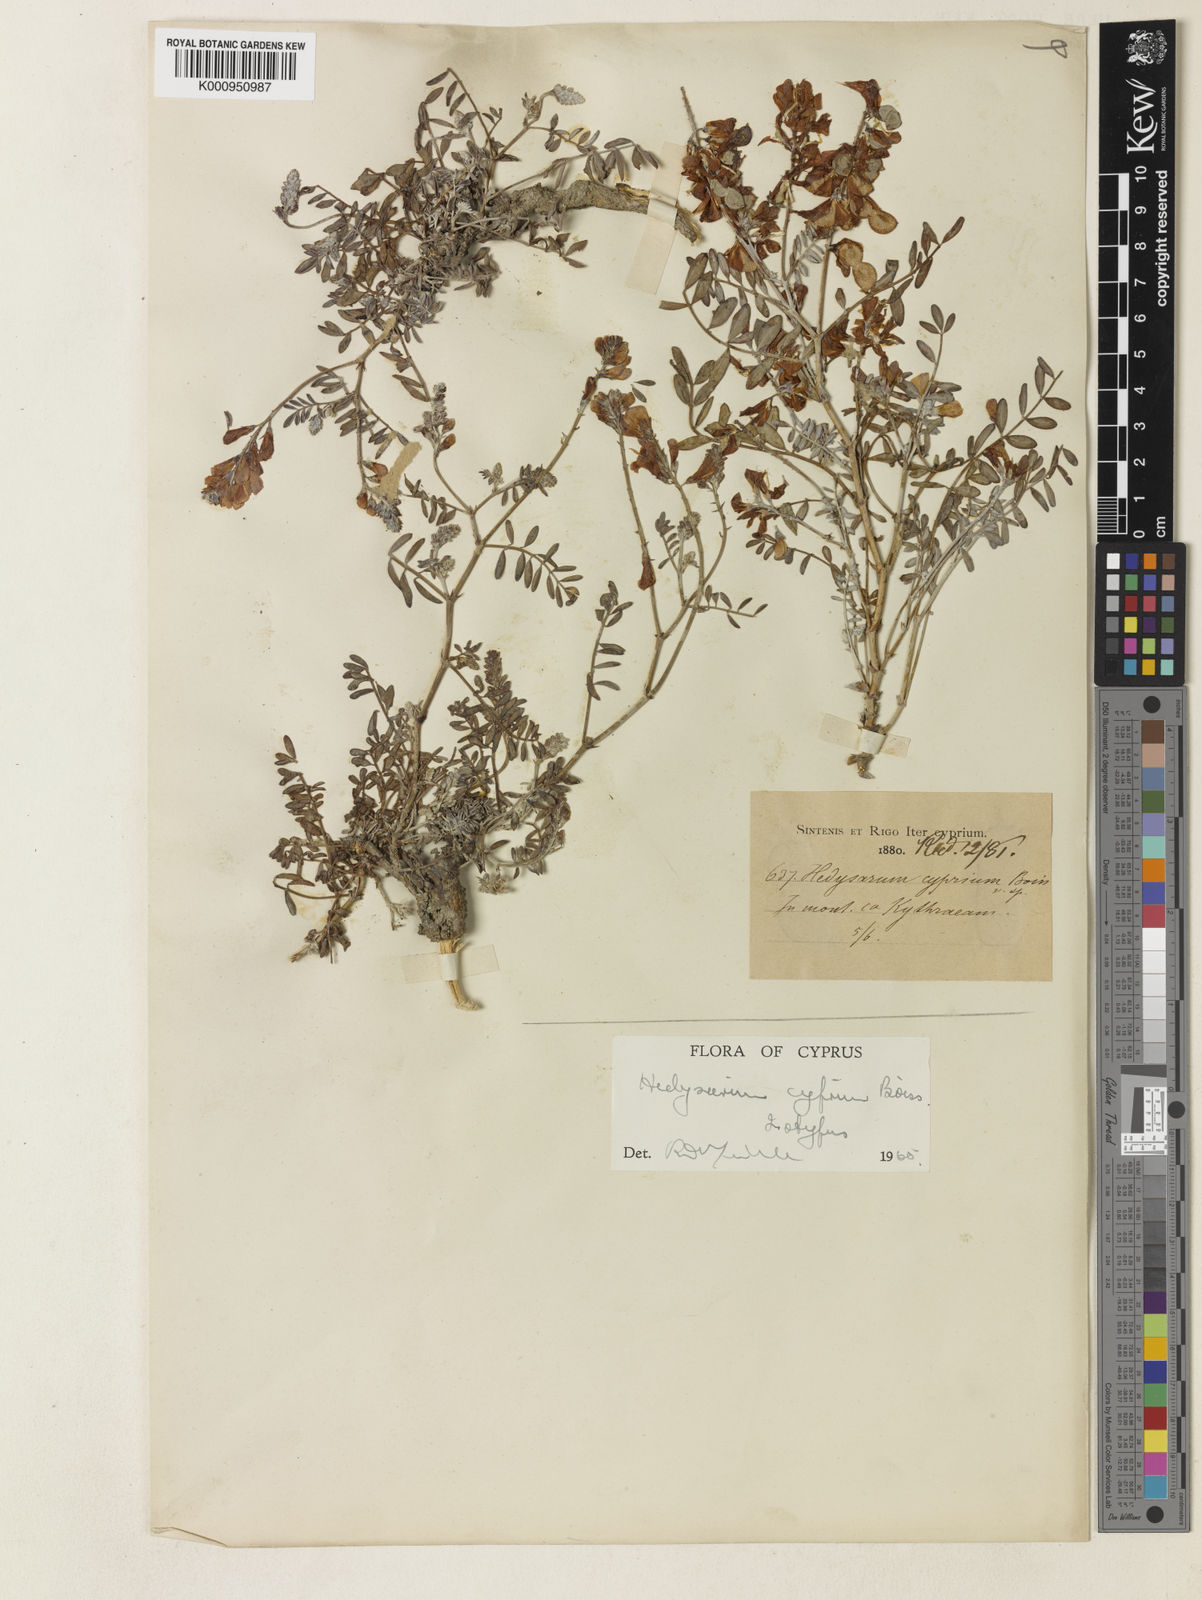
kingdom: Plantae
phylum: Tracheophyta
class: Magnoliopsida
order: Fabales
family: Fabaceae
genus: Hedysarum
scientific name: Hedysarum cyprium
